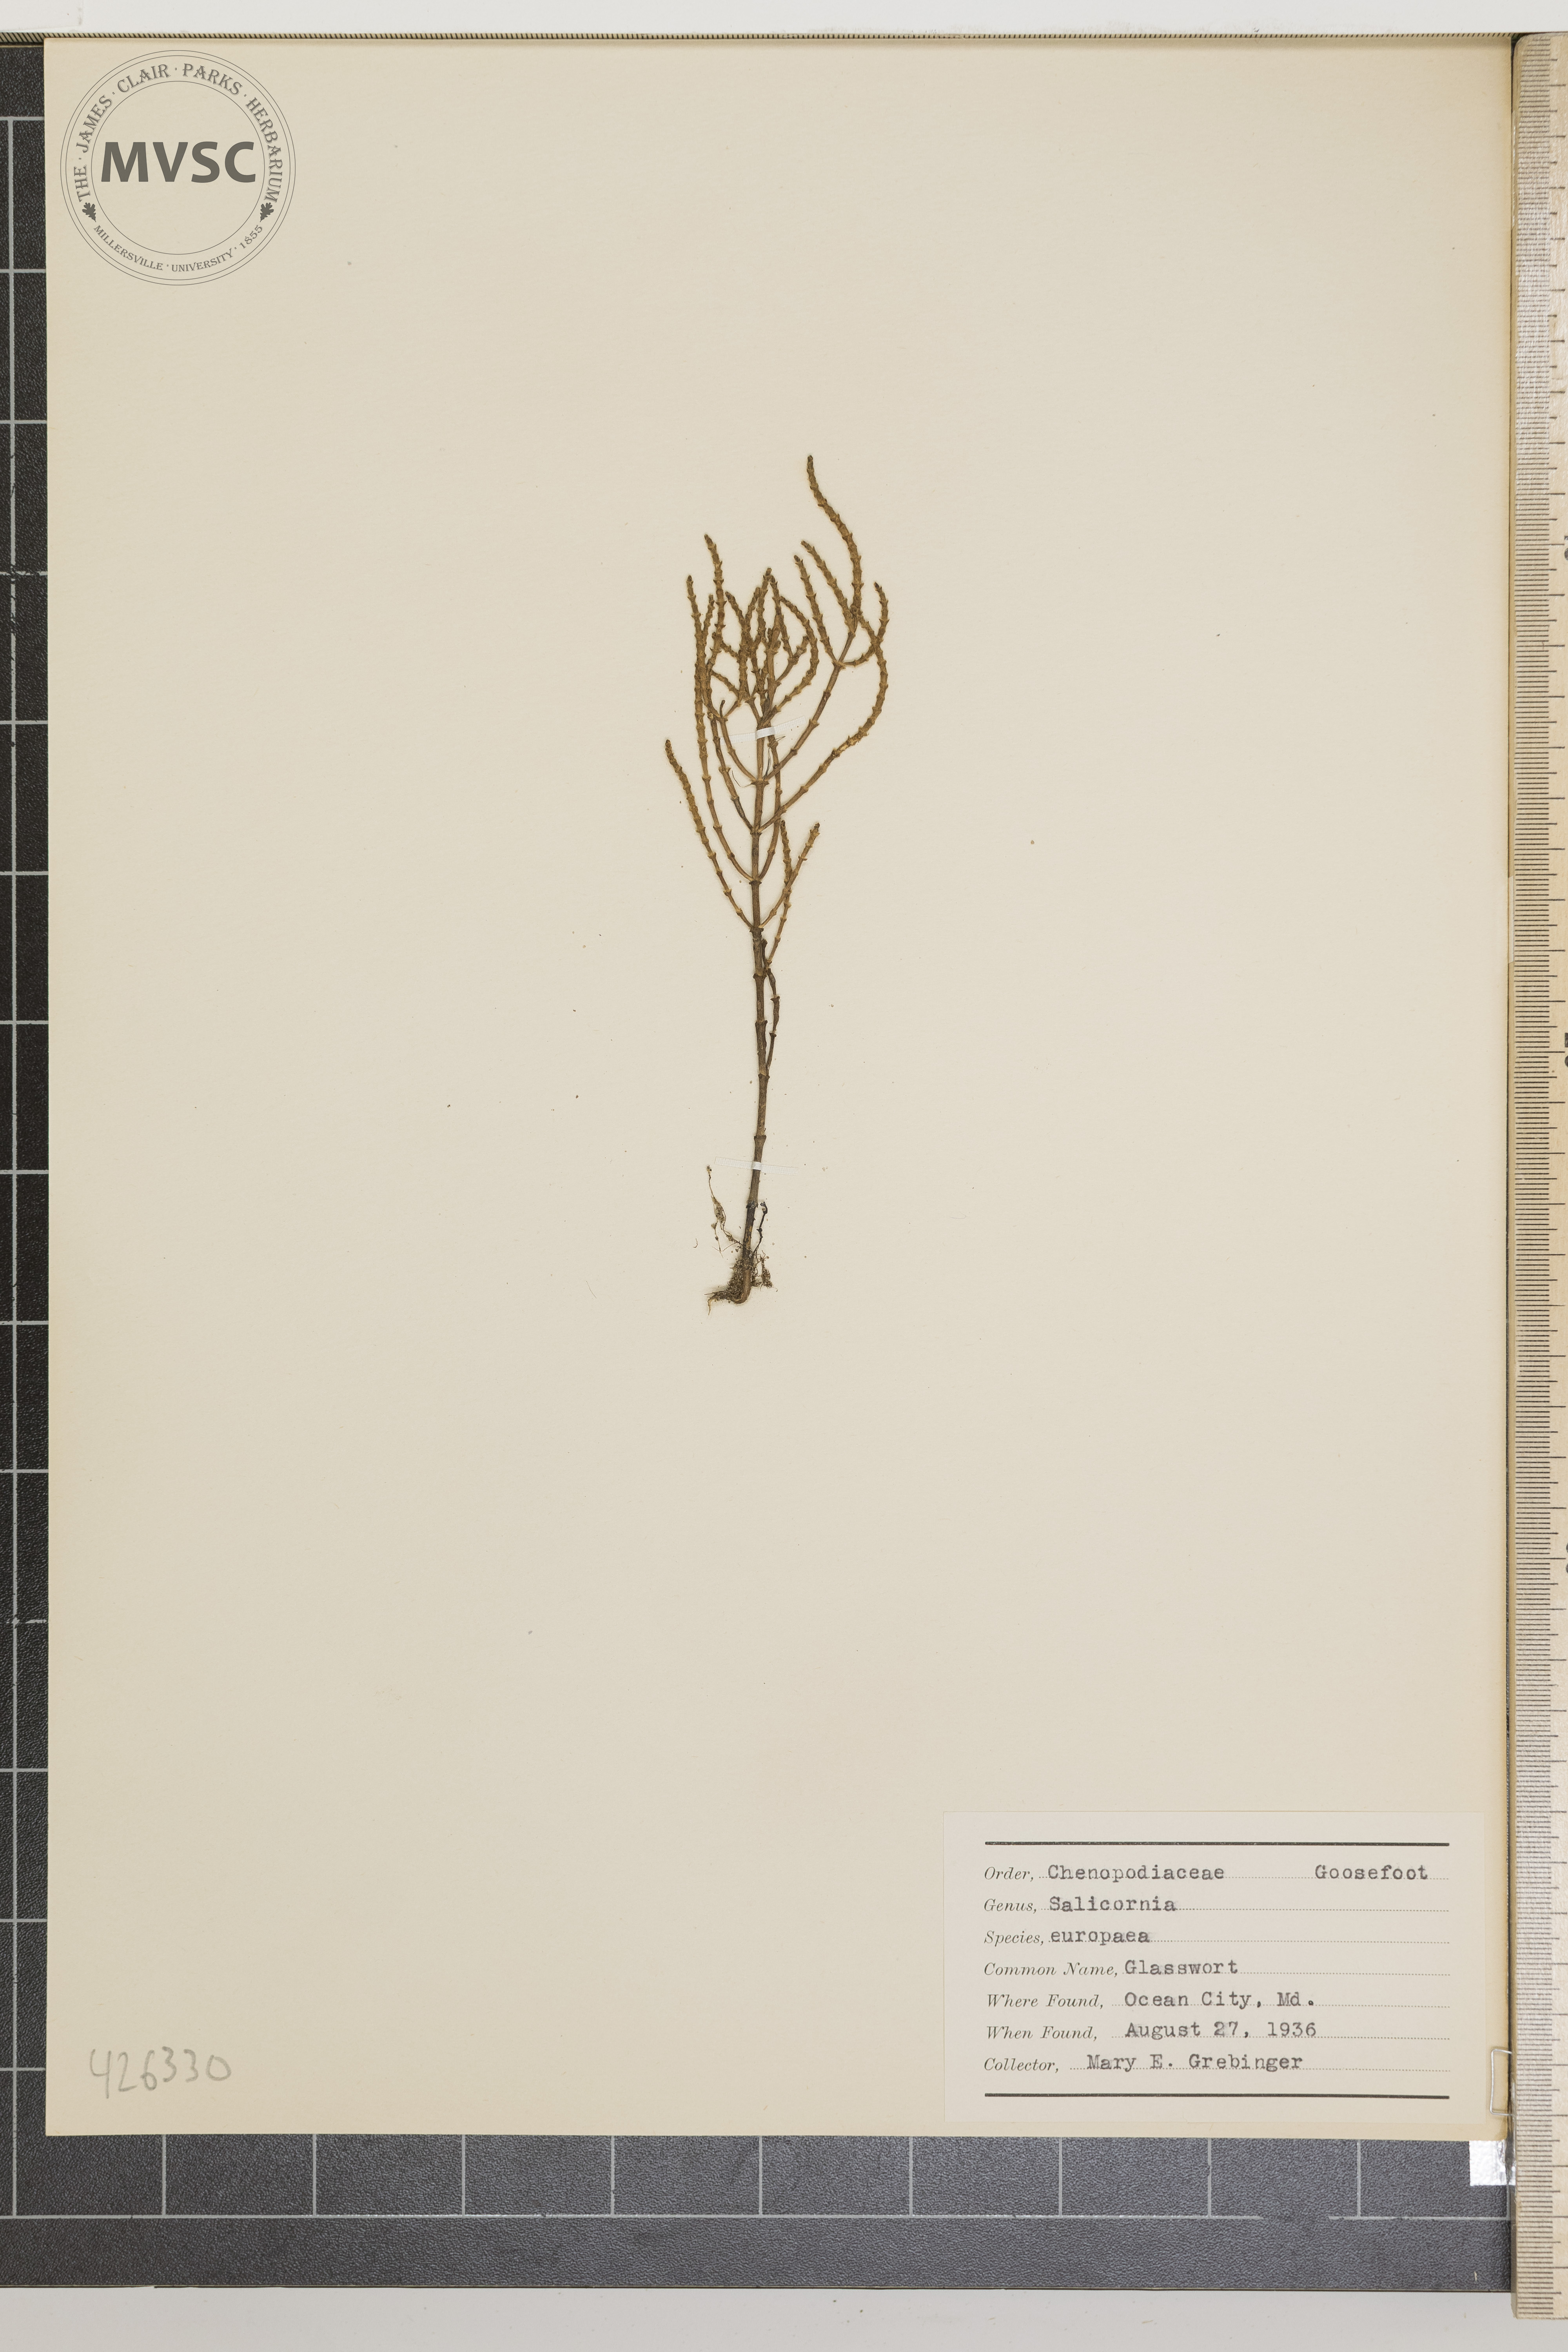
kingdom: Plantae
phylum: Tracheophyta
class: Magnoliopsida
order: Caryophyllales
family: Amaranthaceae
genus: Salicornia
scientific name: Salicornia europaea
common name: Glasswort
